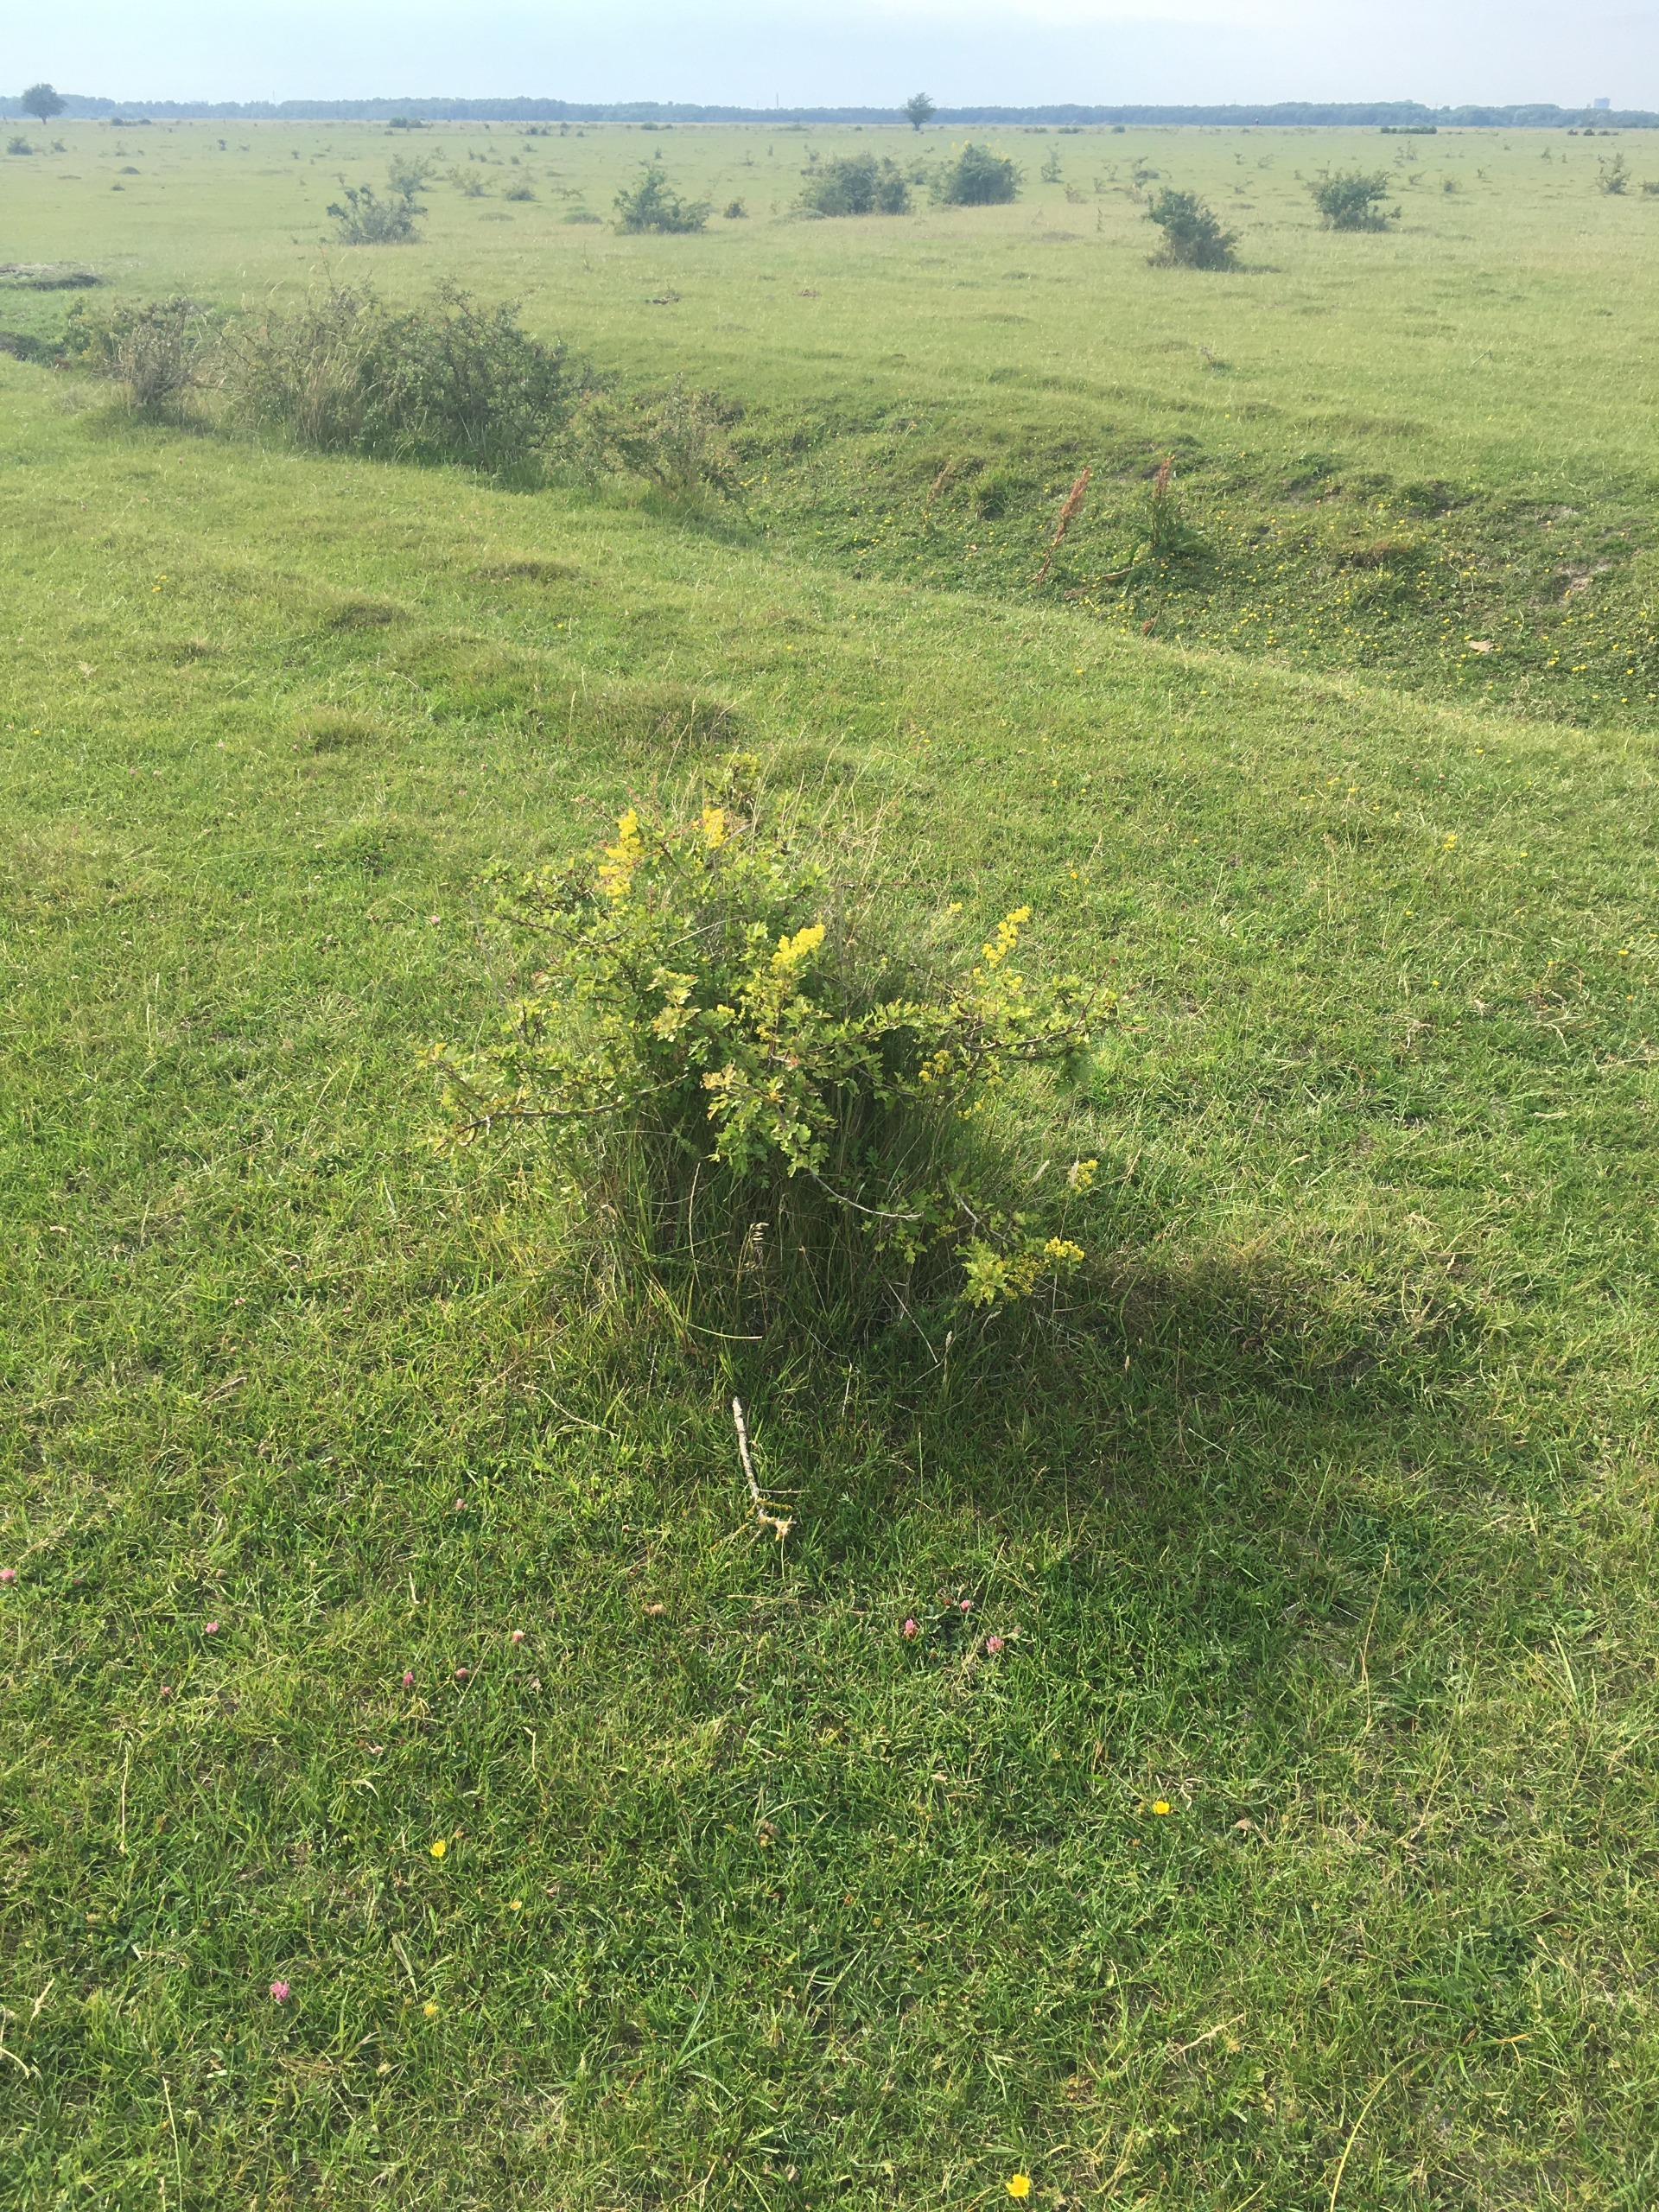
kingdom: Plantae
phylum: Tracheophyta
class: Magnoliopsida
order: Rosales
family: Rosaceae
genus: Crataegus
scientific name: Crataegus subsphaerica
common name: Engriflet hvidtjørn × koral-hvidtjørn
